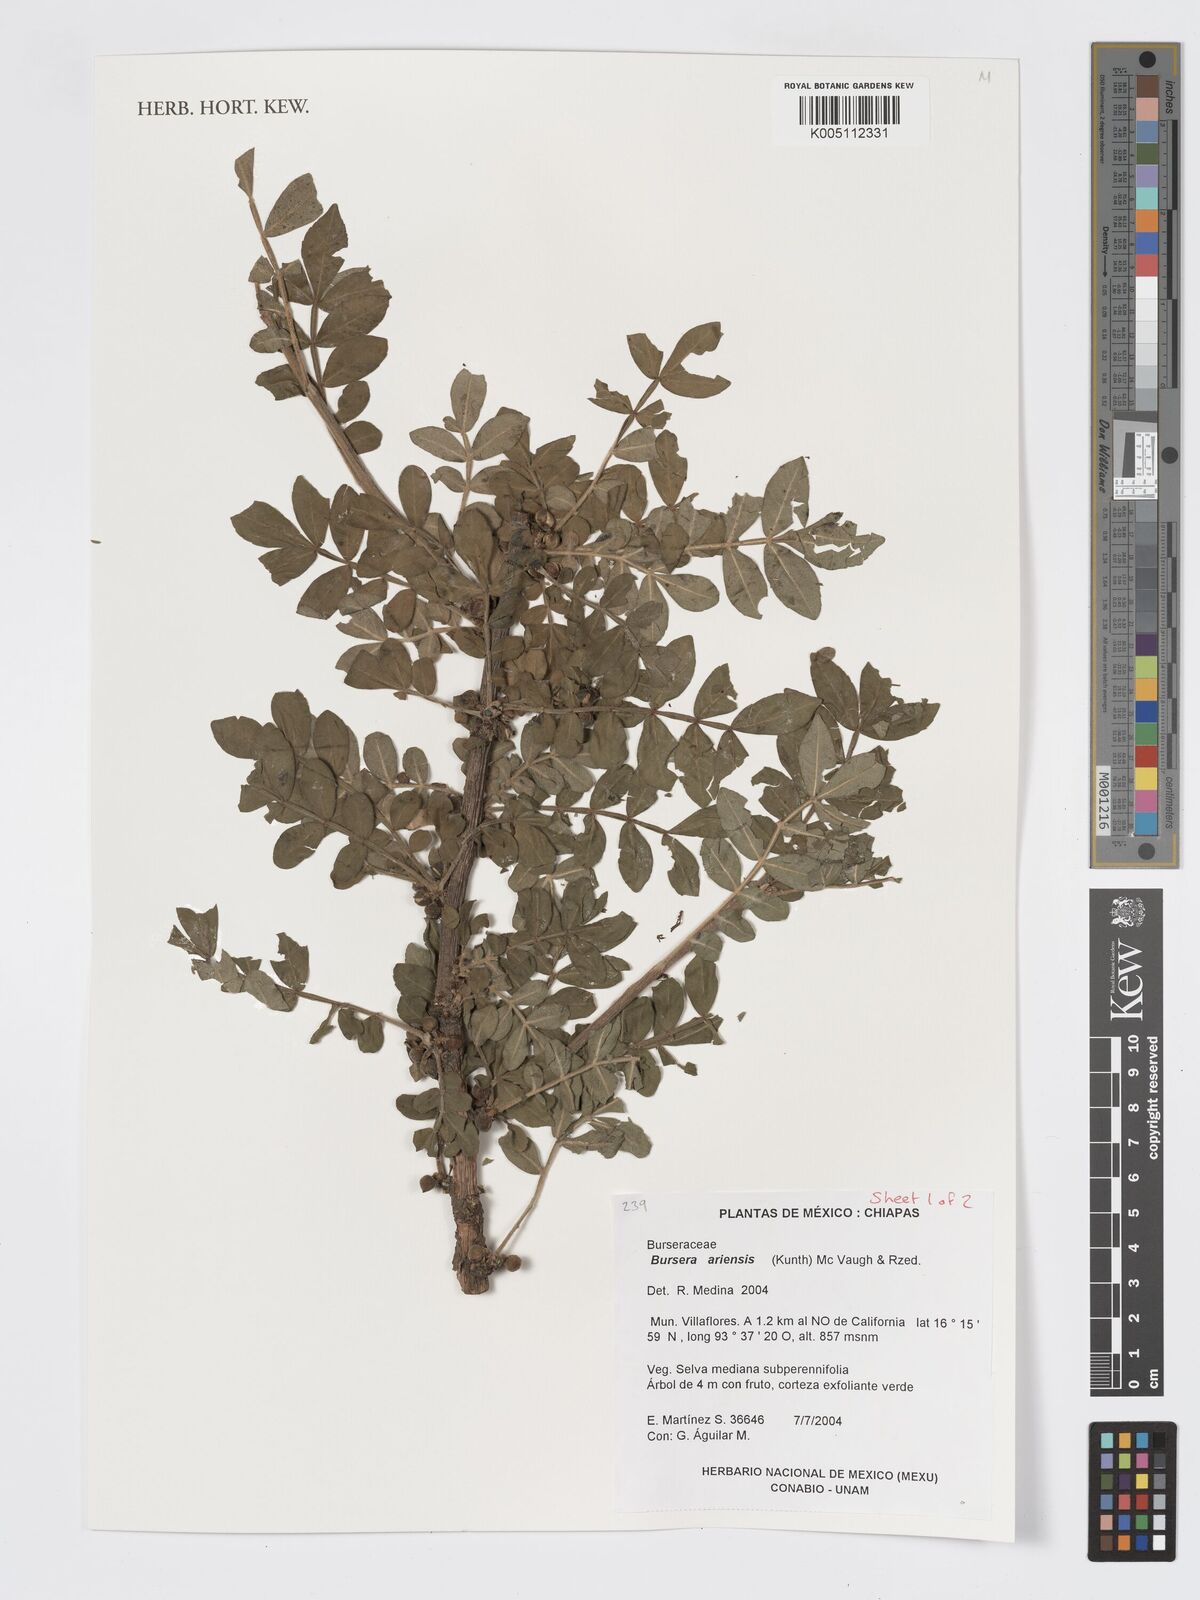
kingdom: Plantae
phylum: Tracheophyta
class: Magnoliopsida
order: Sapindales
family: Burseraceae
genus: Bursera
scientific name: Bursera ariensis
